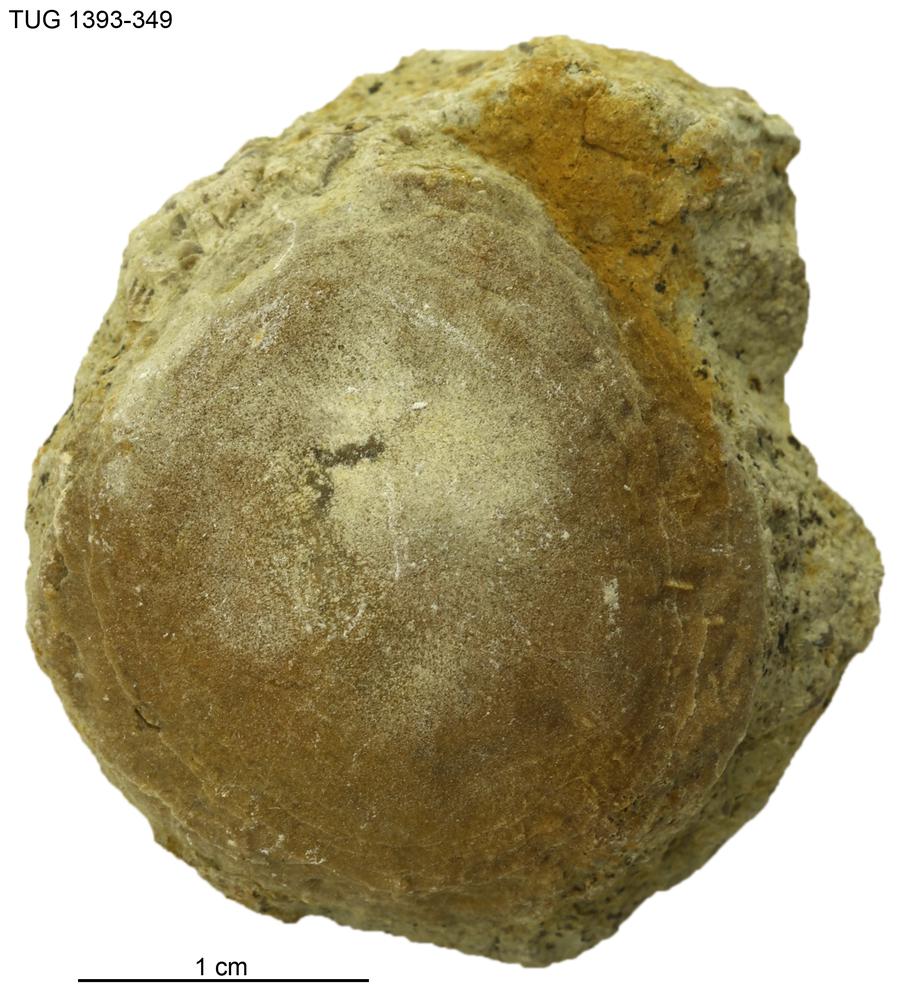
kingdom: Animalia
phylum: Bryozoa
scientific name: Bryozoa
